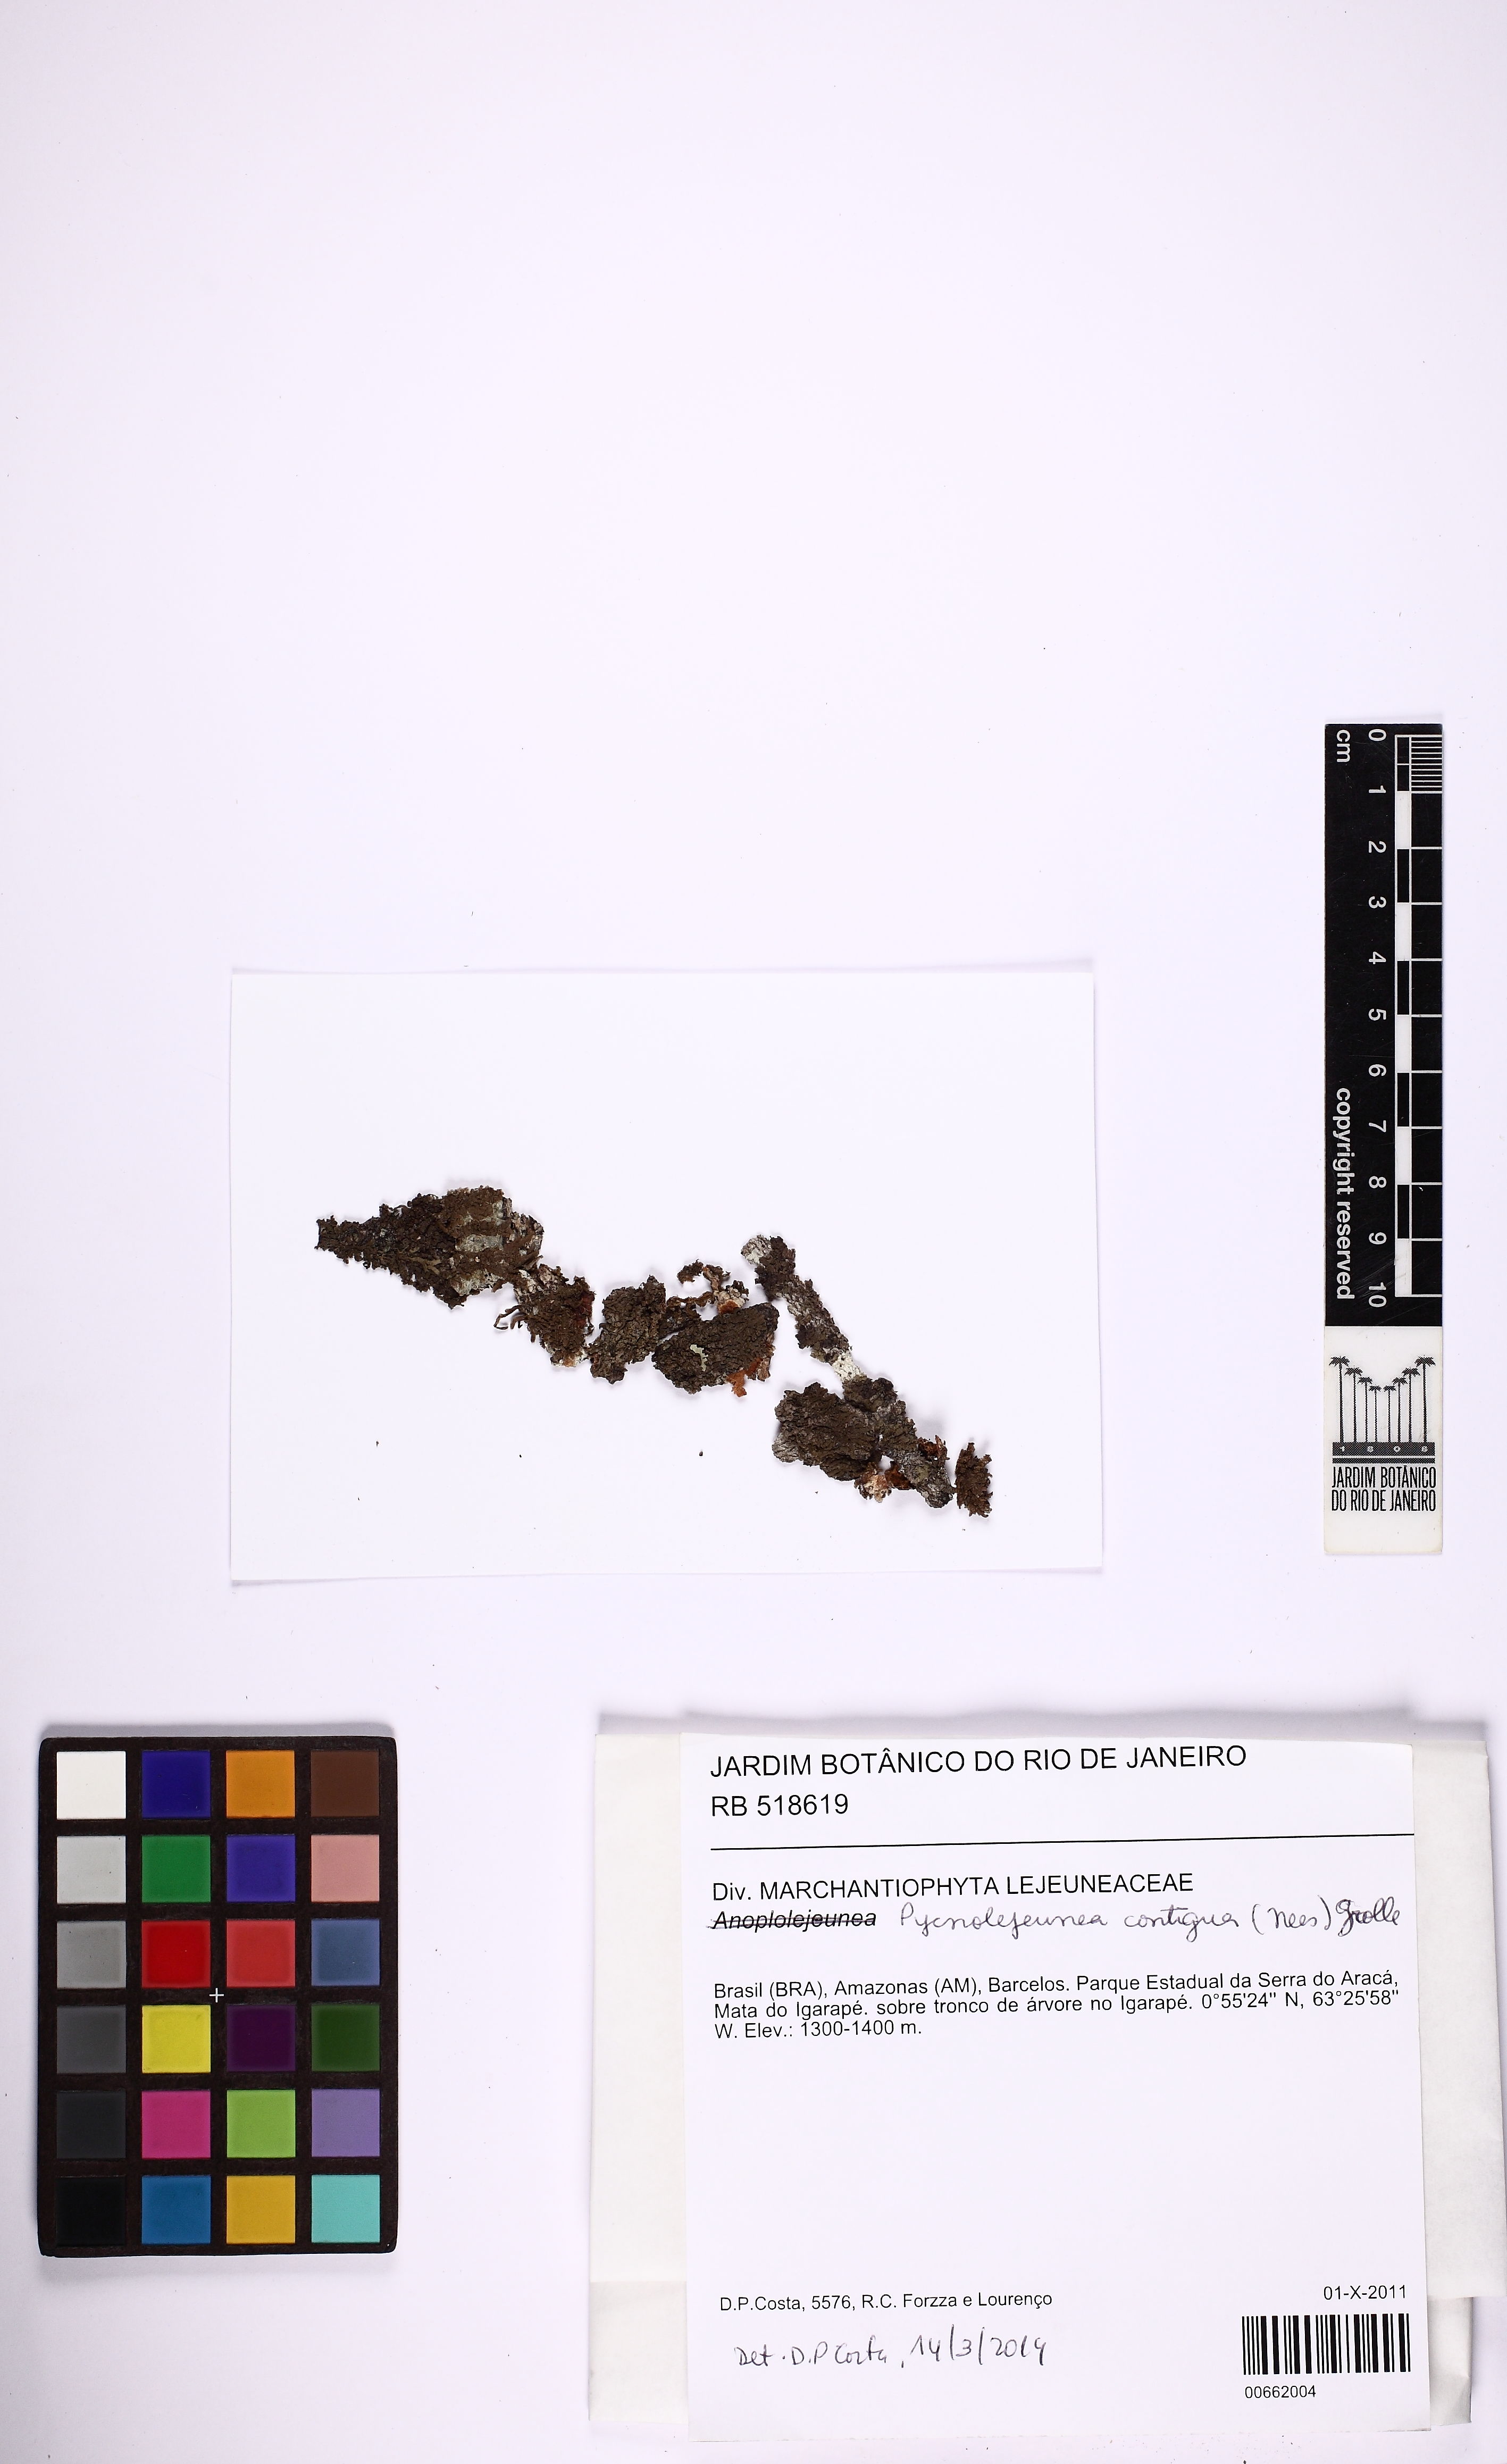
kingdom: Plantae
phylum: Marchantiophyta
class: Jungermanniopsida
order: Porellales
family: Lejeuneaceae
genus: Pycnolejeunea
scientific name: Pycnolejeunea contigua
